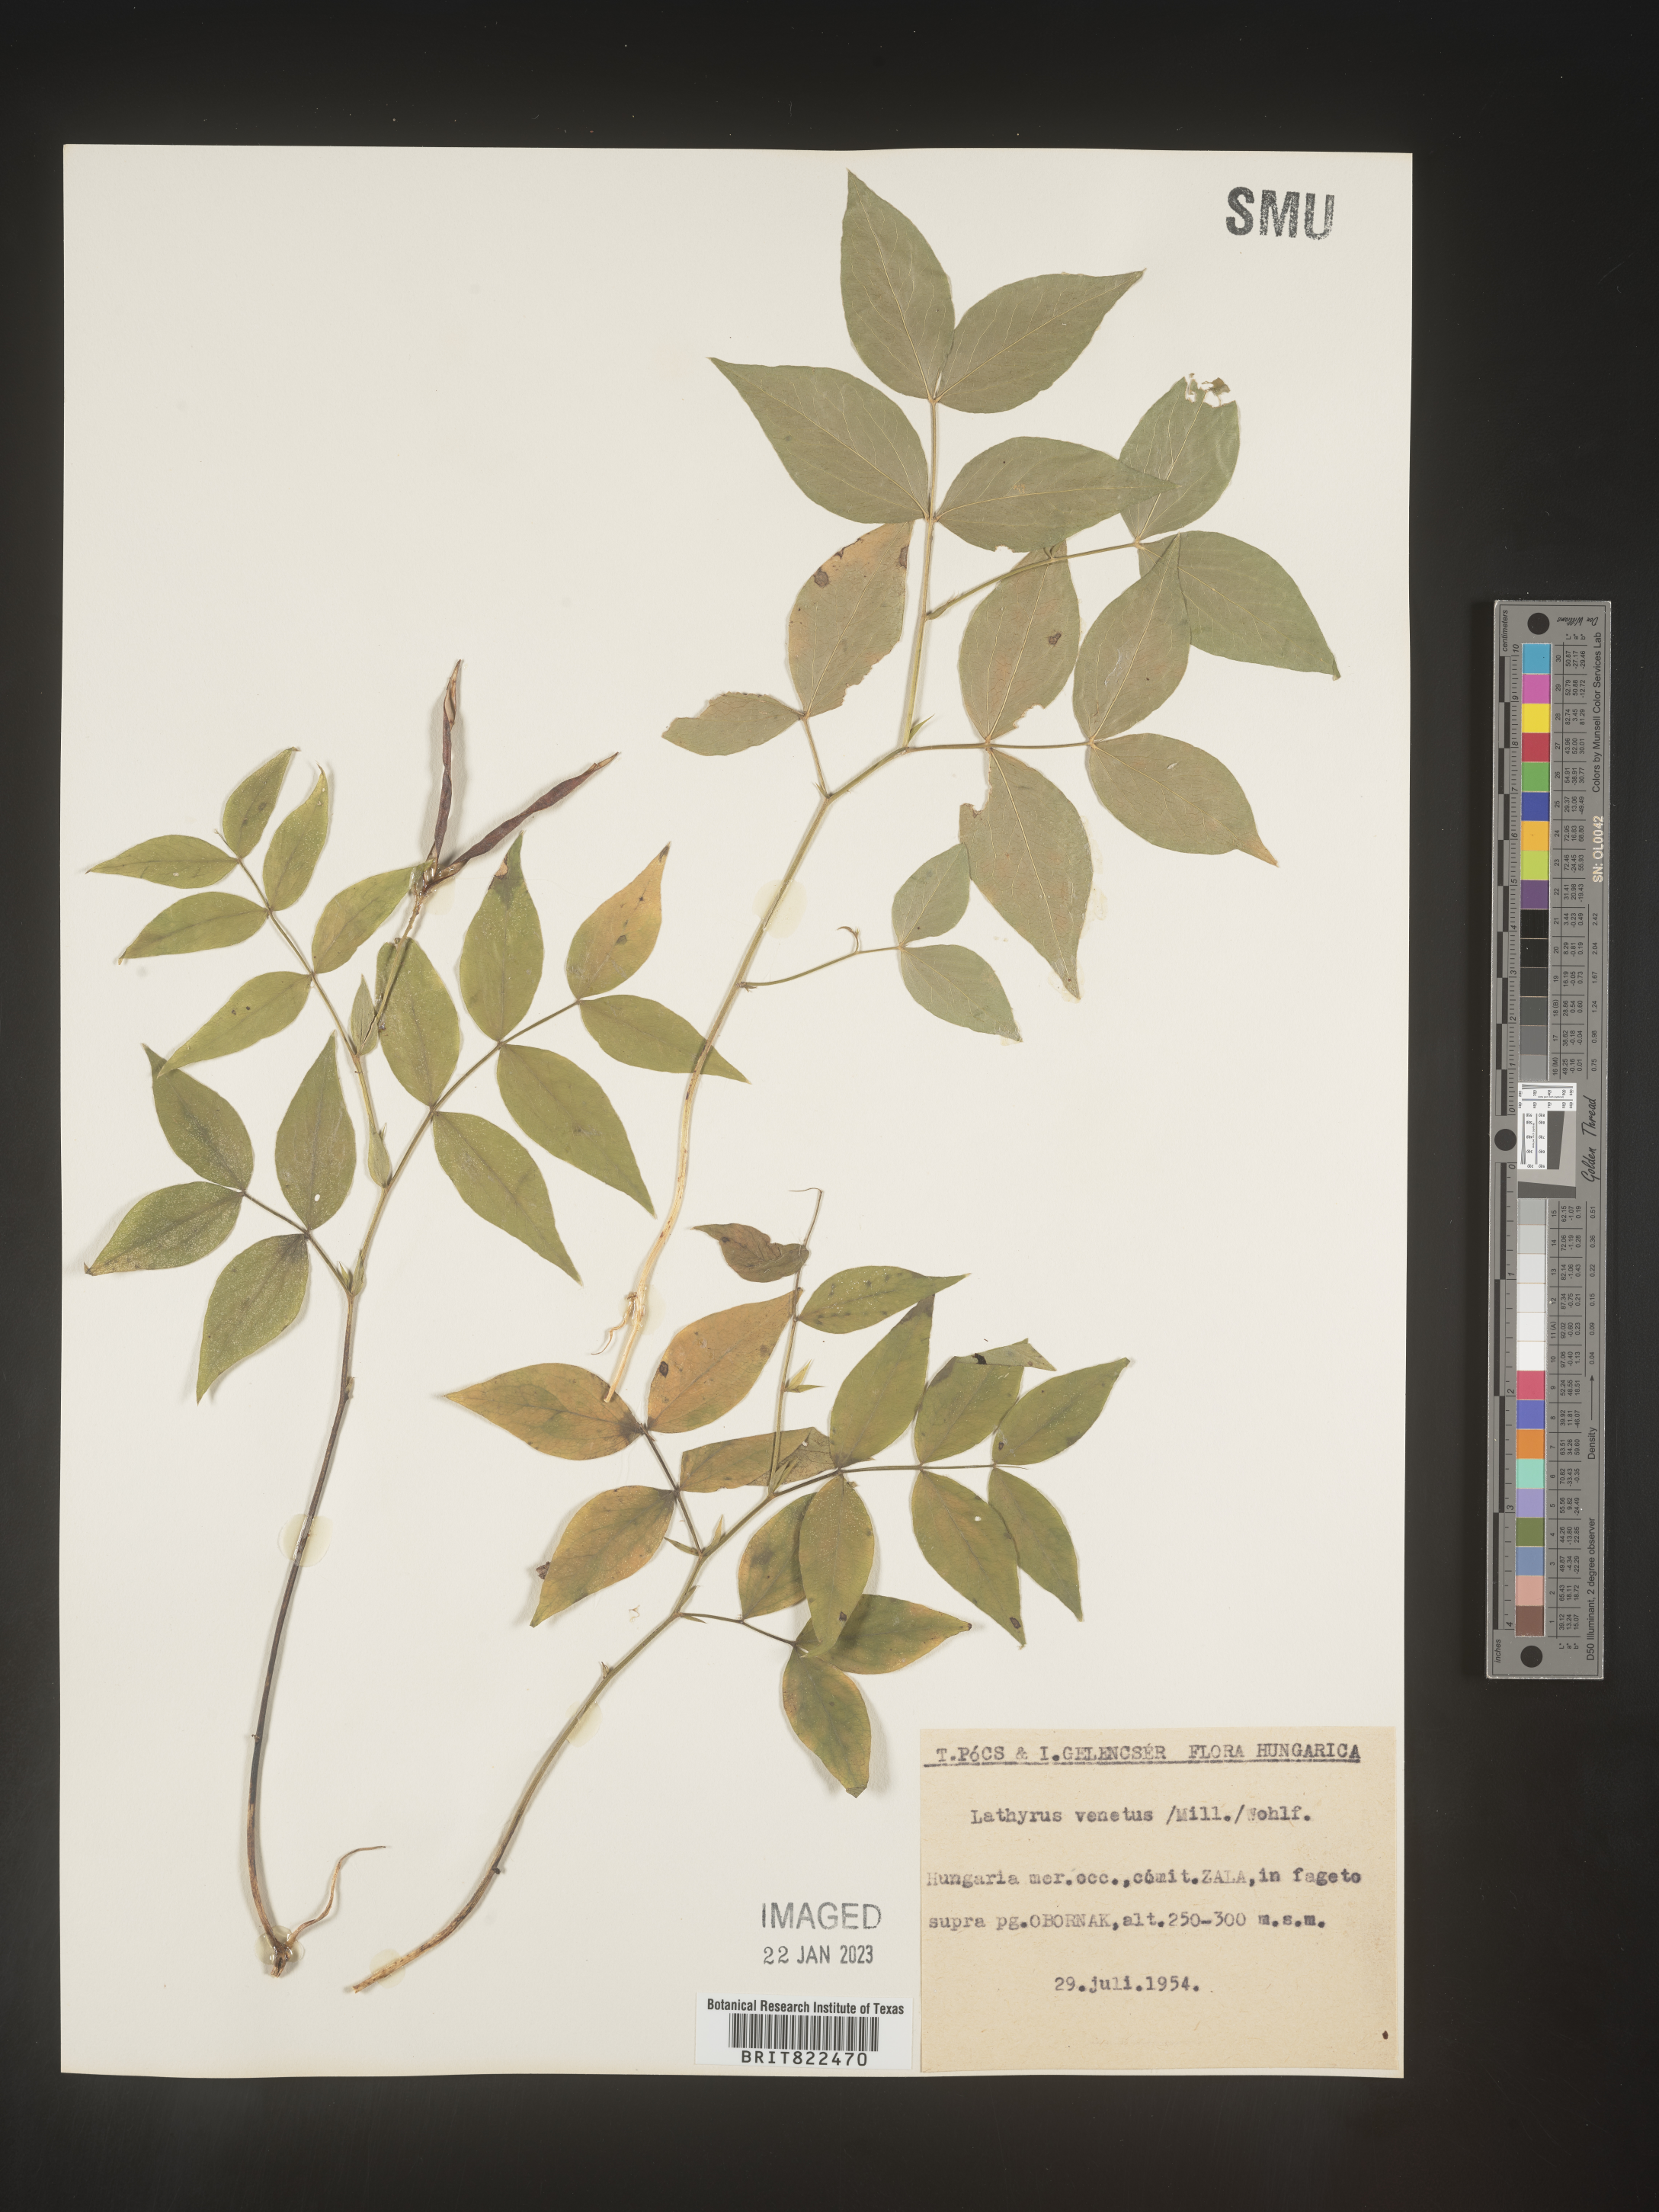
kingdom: Plantae
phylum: Tracheophyta
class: Magnoliopsida
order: Fabales
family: Fabaceae
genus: Lathyrus
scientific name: Lathyrus
